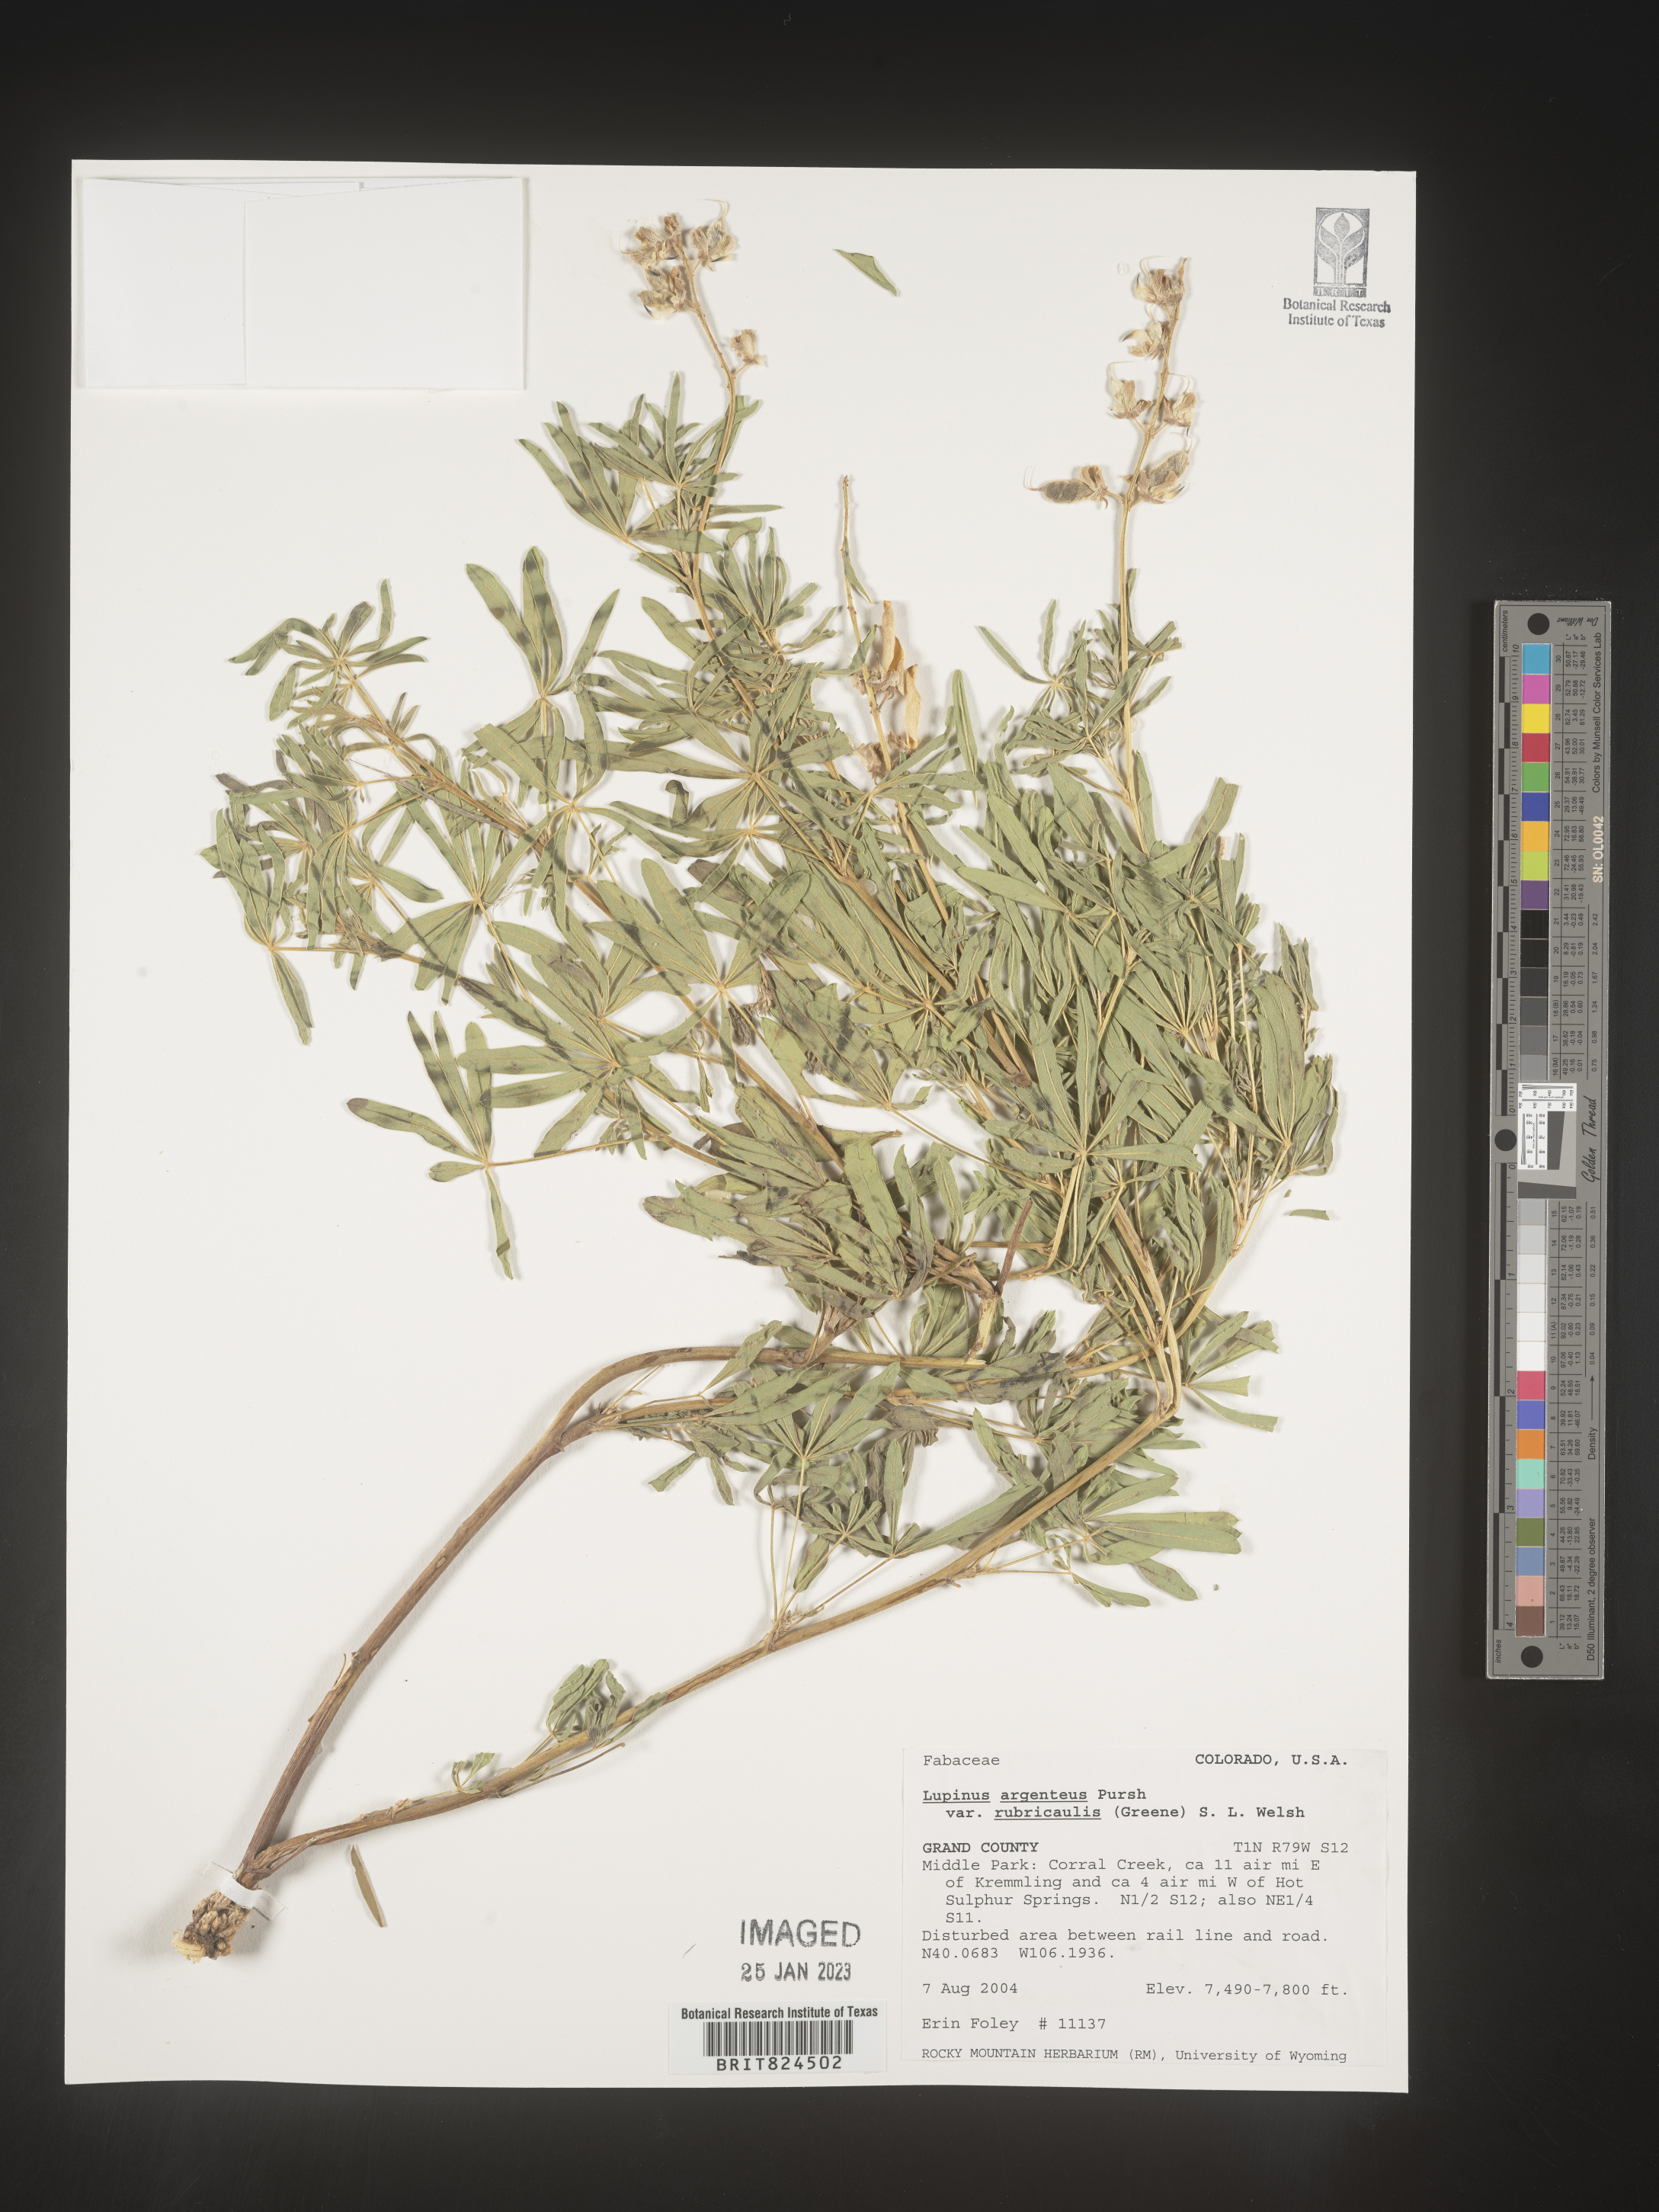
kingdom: Plantae
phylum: Tracheophyta
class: Magnoliopsida
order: Fabales
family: Fabaceae
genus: Lupinus
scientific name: Lupinus argenteus
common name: Silvery lupine
